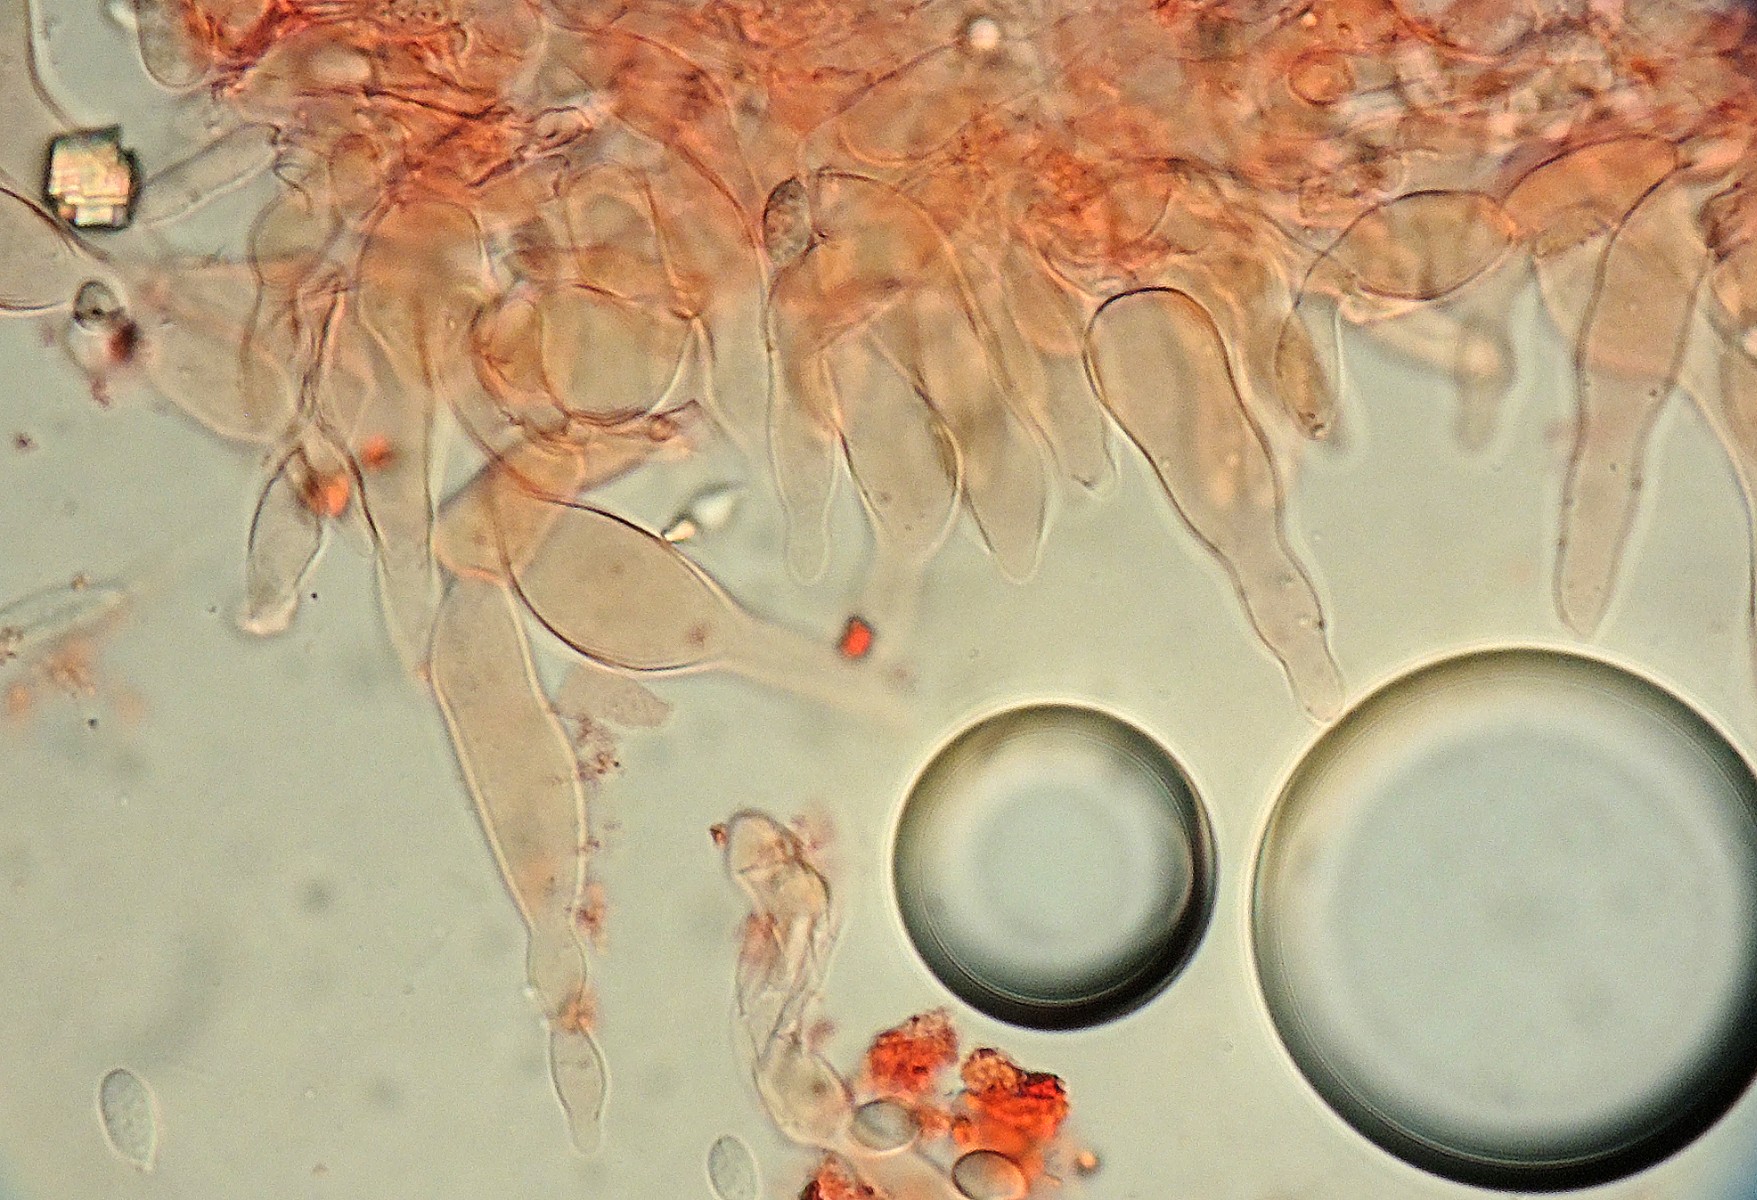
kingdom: Fungi
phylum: Basidiomycota
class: Agaricomycetes
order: Agaricales
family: Mycenaceae
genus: Mycena
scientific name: Mycena scirpicola
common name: flagelhåret huesvamp
